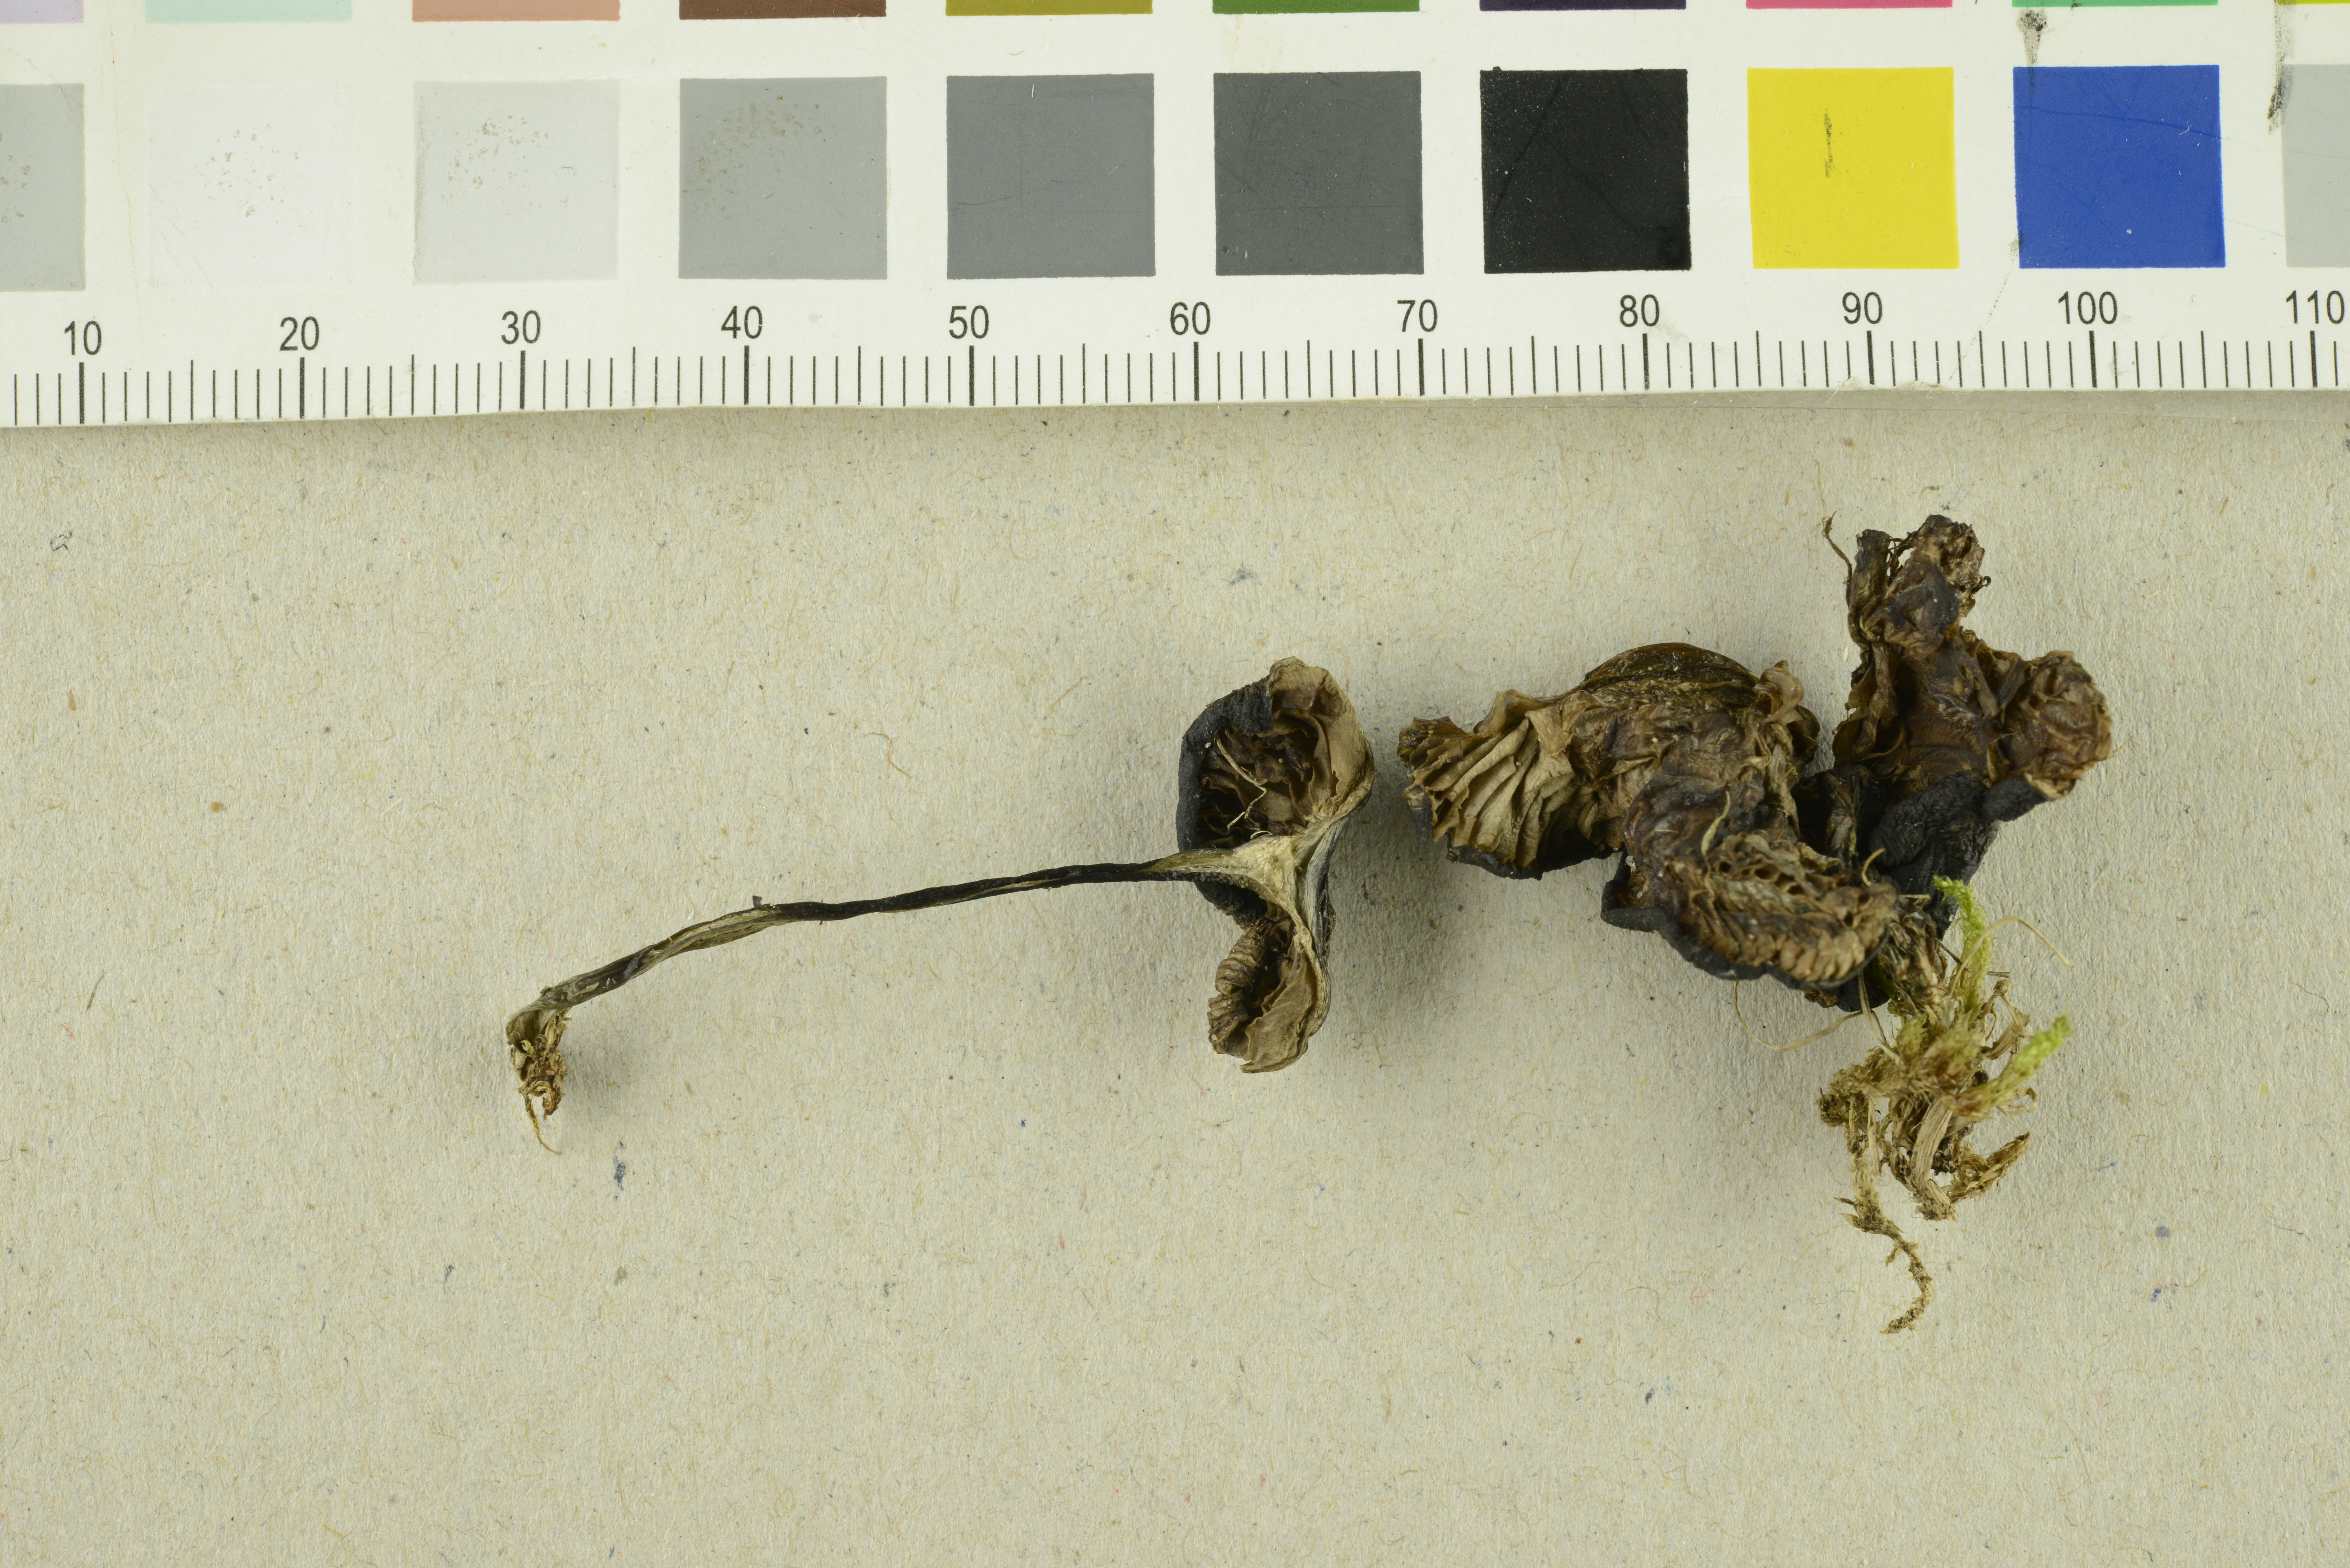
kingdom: Fungi
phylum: Basidiomycota
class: Agaricomycetes
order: Agaricales
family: Entolomataceae
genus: Entoloma
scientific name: Entoloma atrocoeruleum
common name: Navy pinkgill
